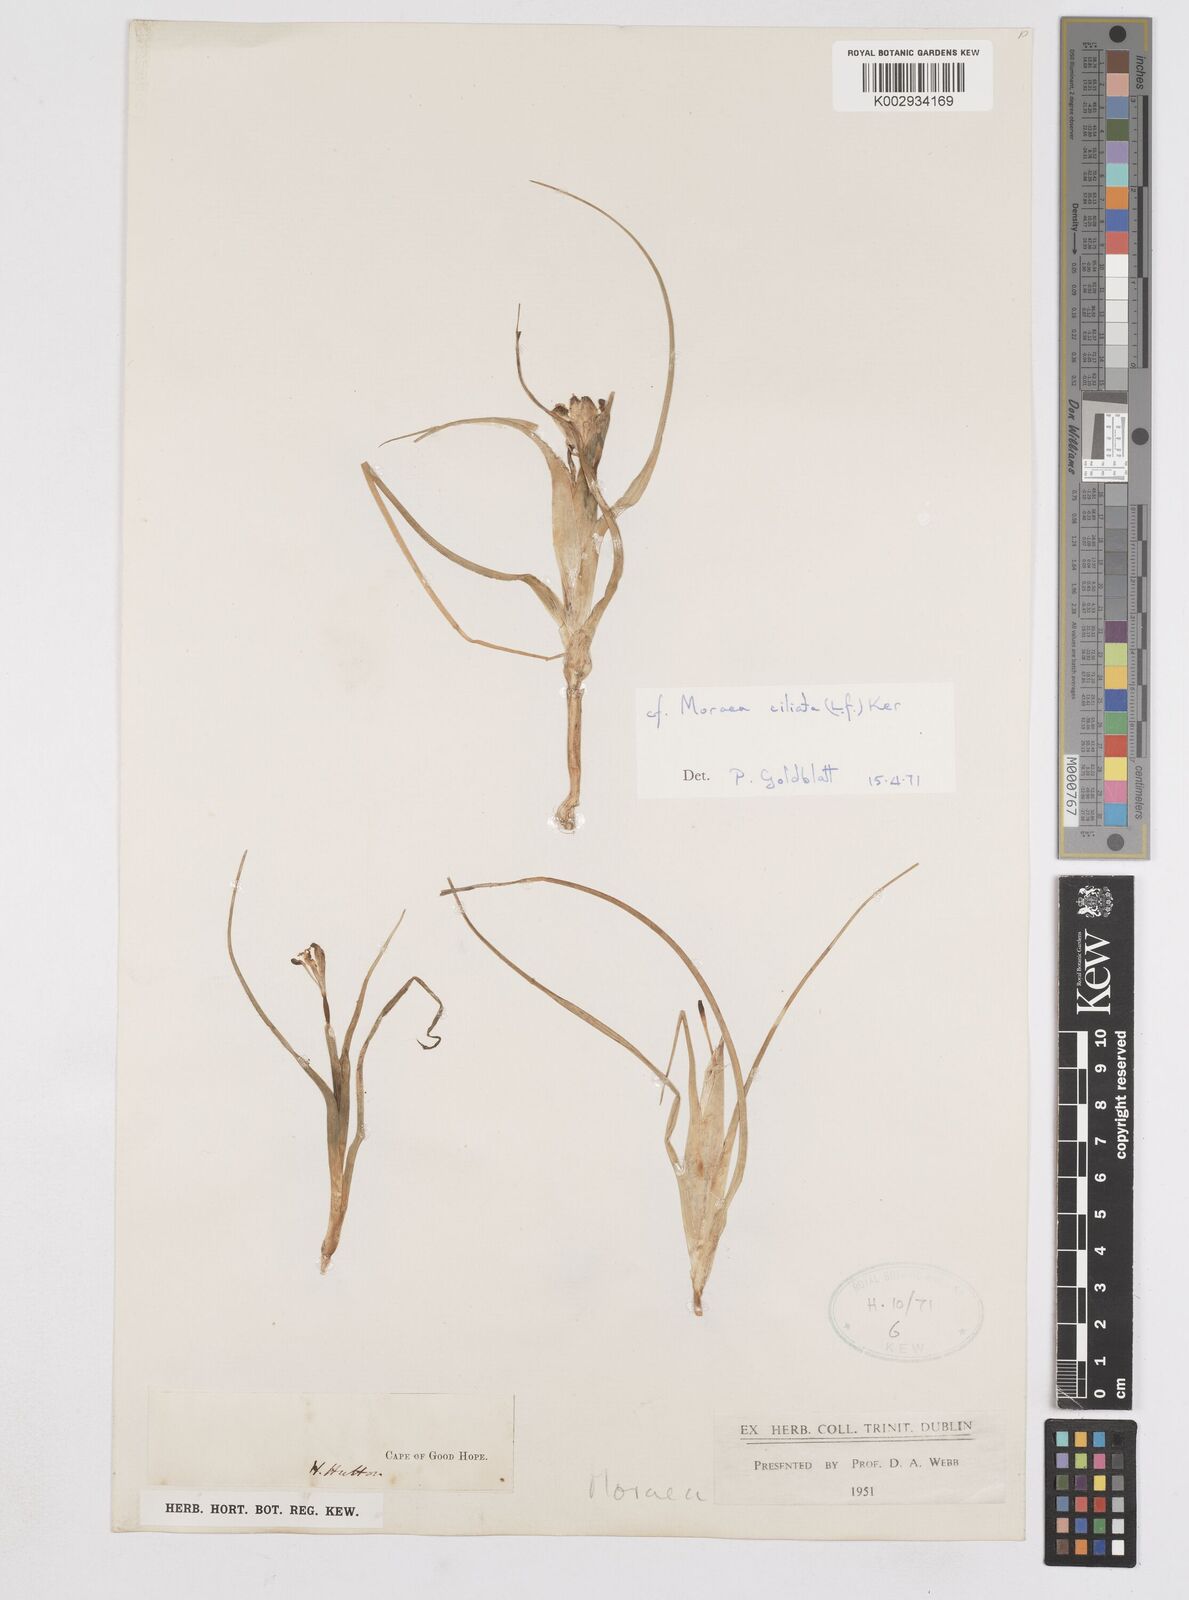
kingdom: Plantae
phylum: Tracheophyta
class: Liliopsida
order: Asparagales
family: Iridaceae
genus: Moraea
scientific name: Moraea ciliata
